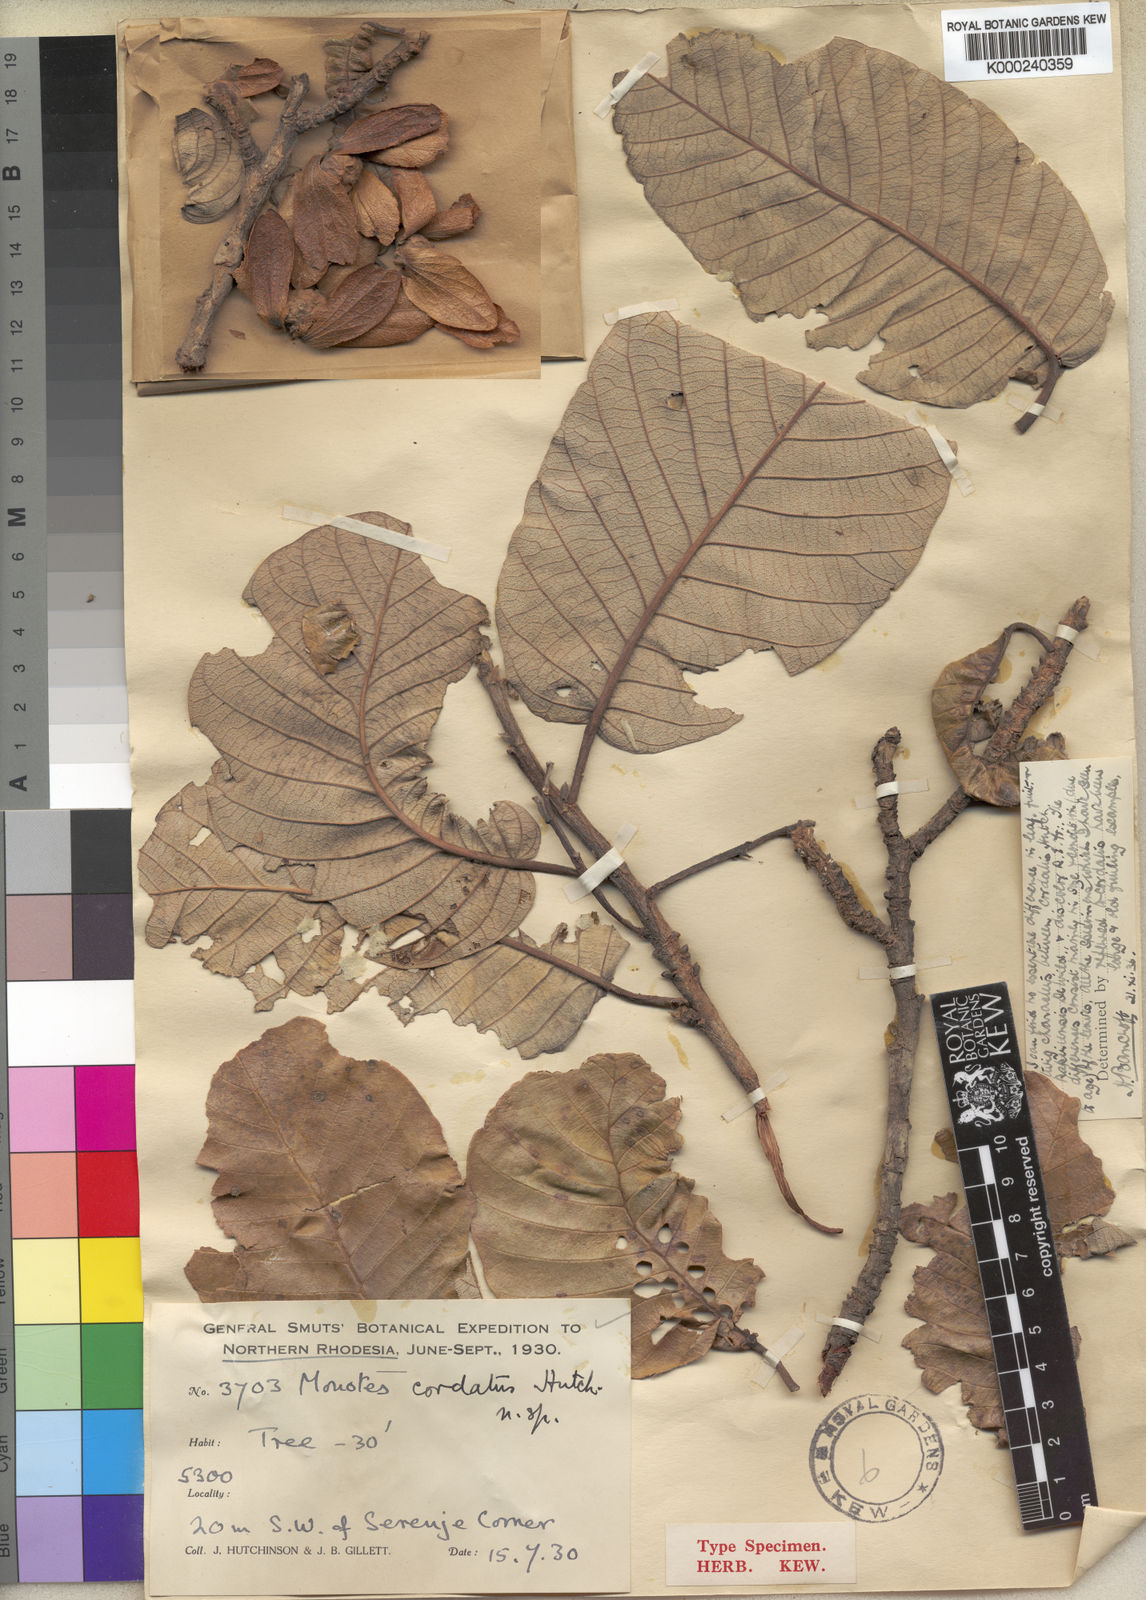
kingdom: Plantae
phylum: Tracheophyta
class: Magnoliopsida
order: Malvales
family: Dipterocarpaceae
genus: Monotes
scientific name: Monotes hypoleucus
